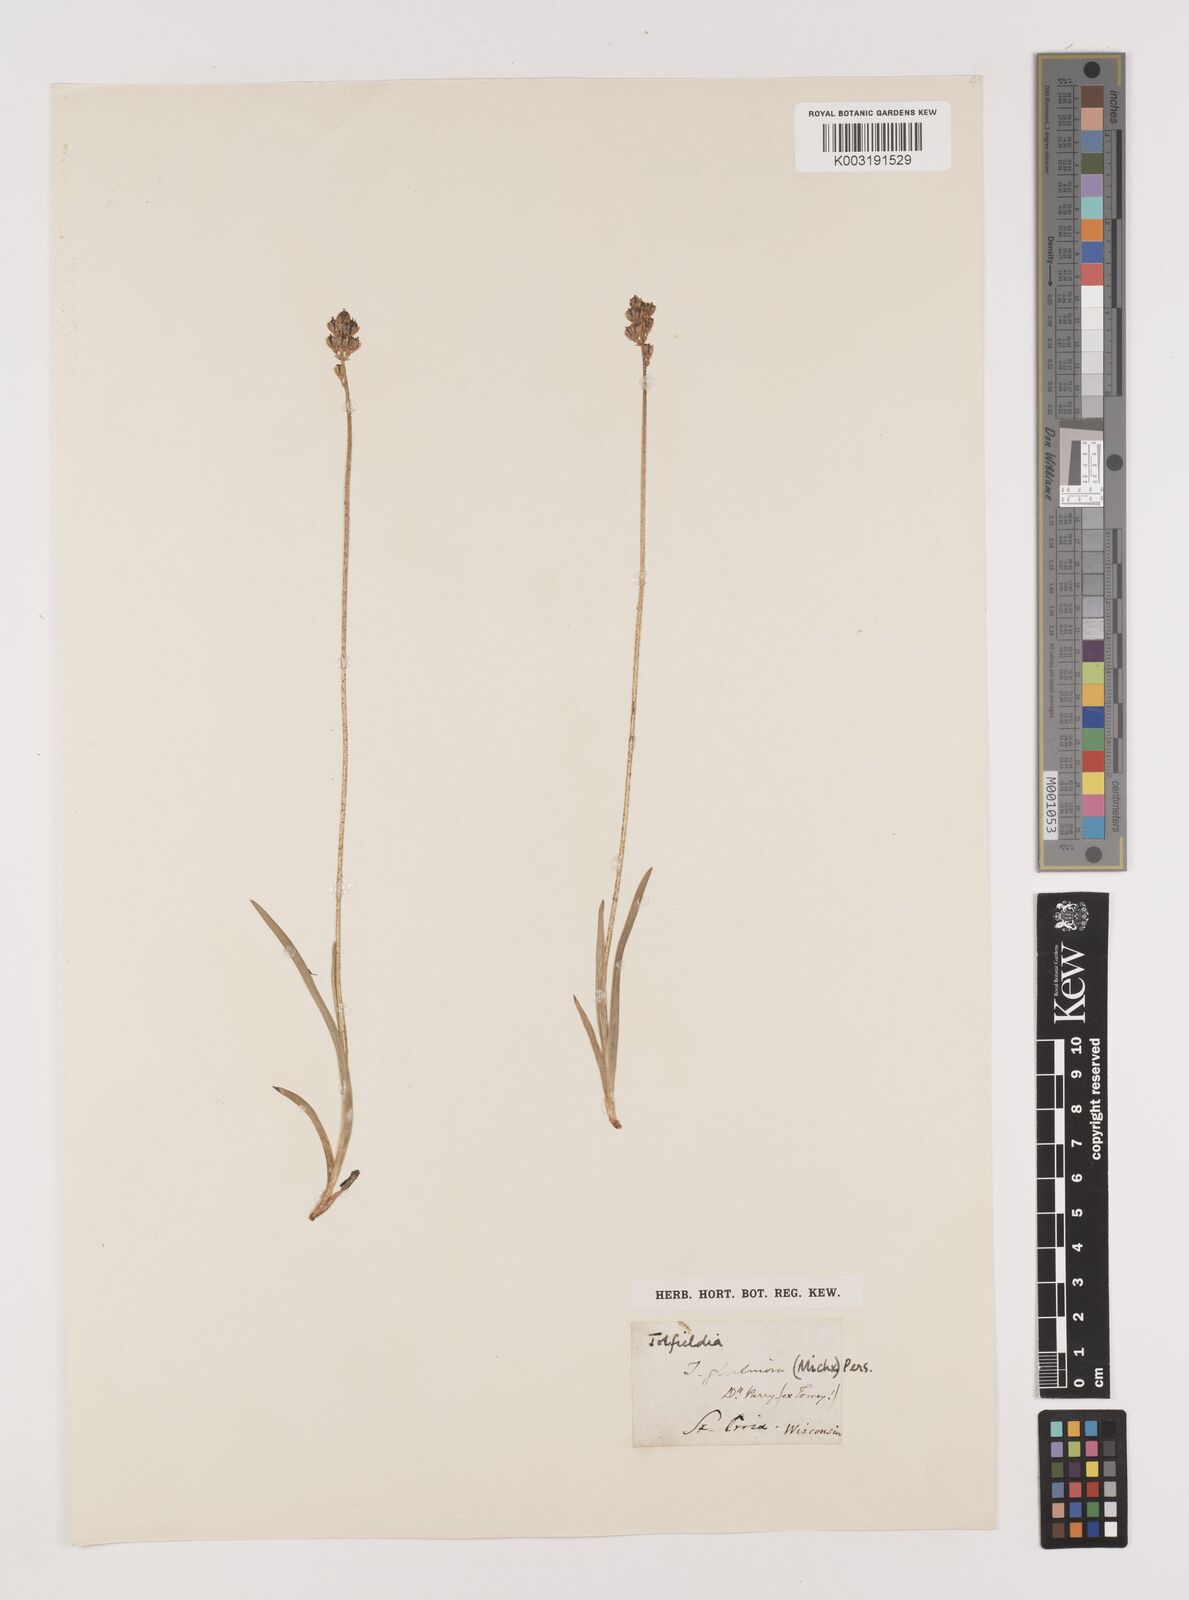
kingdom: Plantae
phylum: Tracheophyta
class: Liliopsida
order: Alismatales
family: Tofieldiaceae
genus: Triantha
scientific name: Triantha glutinosa
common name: Glutinous tofieldia
